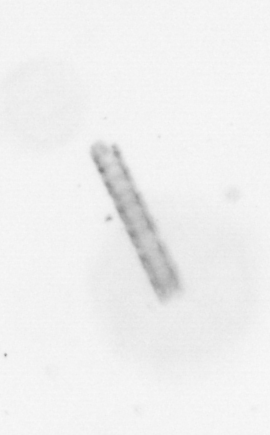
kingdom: Chromista
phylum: Ochrophyta
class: Bacillariophyceae
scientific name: Bacillariophyceae
